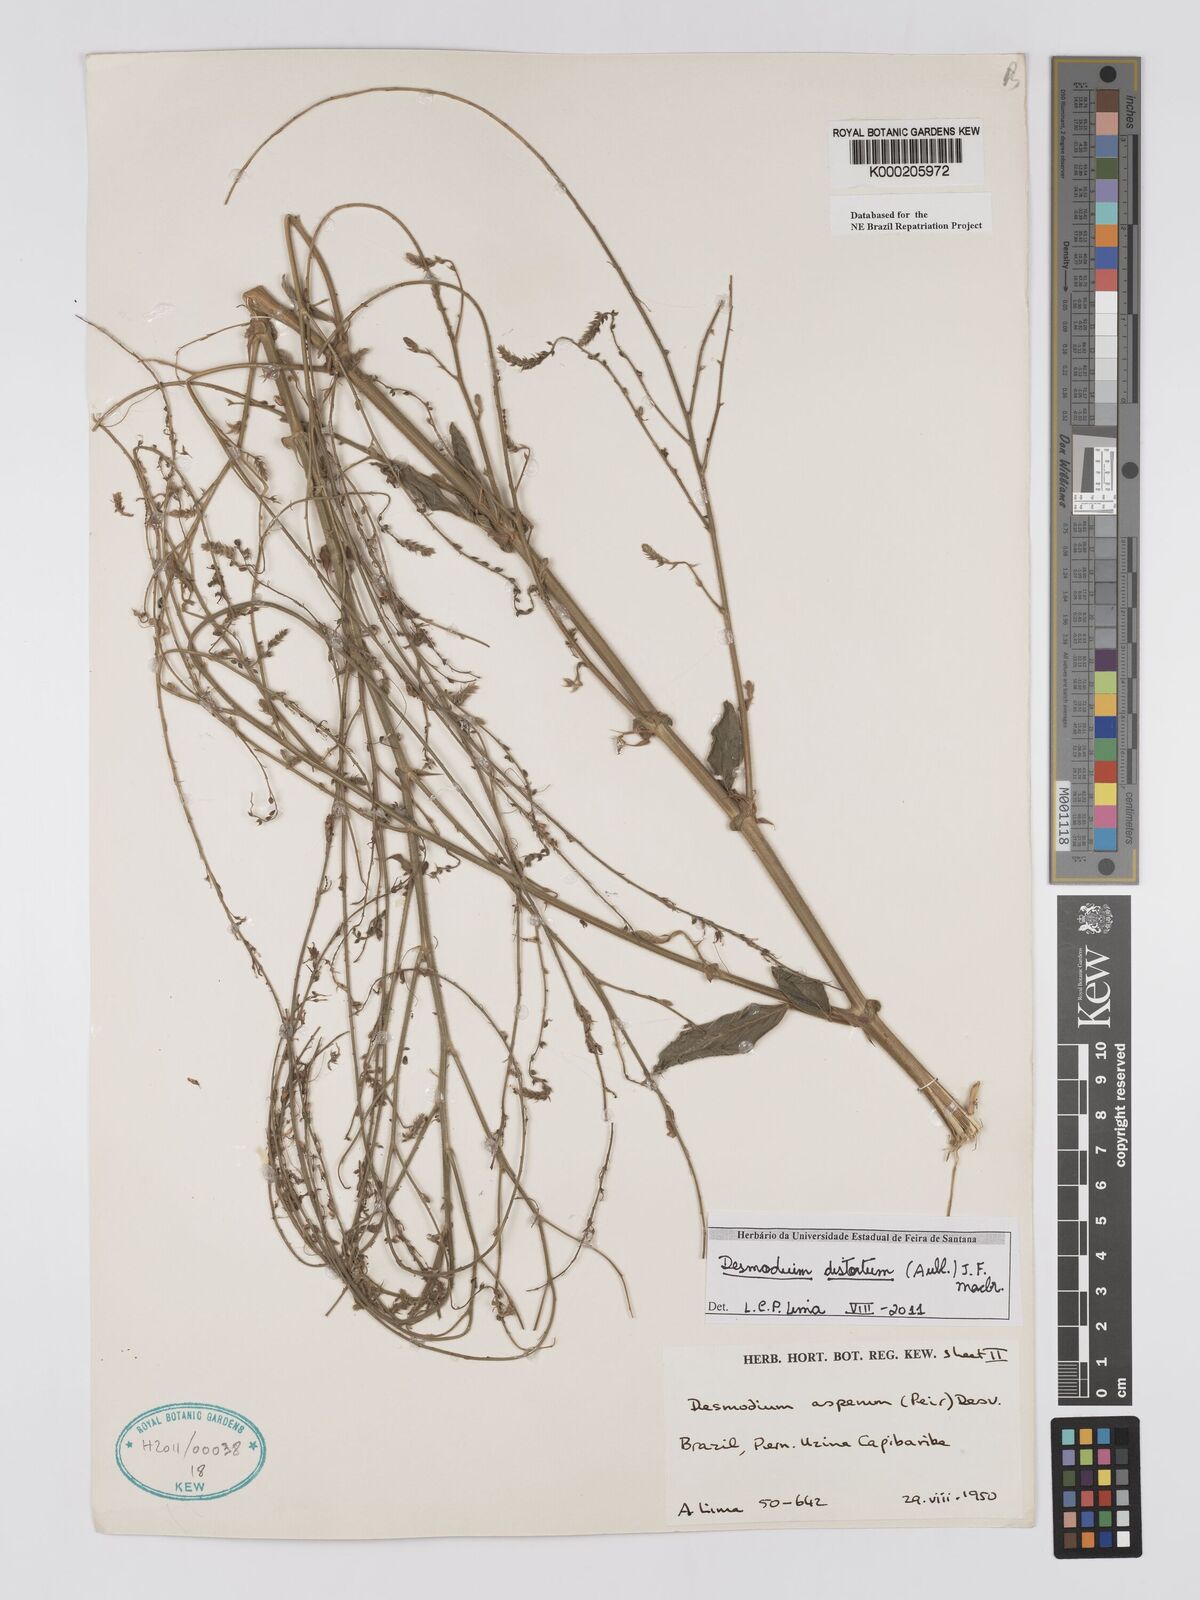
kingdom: Plantae
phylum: Tracheophyta
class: Magnoliopsida
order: Fabales
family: Fabaceae
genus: Desmodium
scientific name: Desmodium distortum
